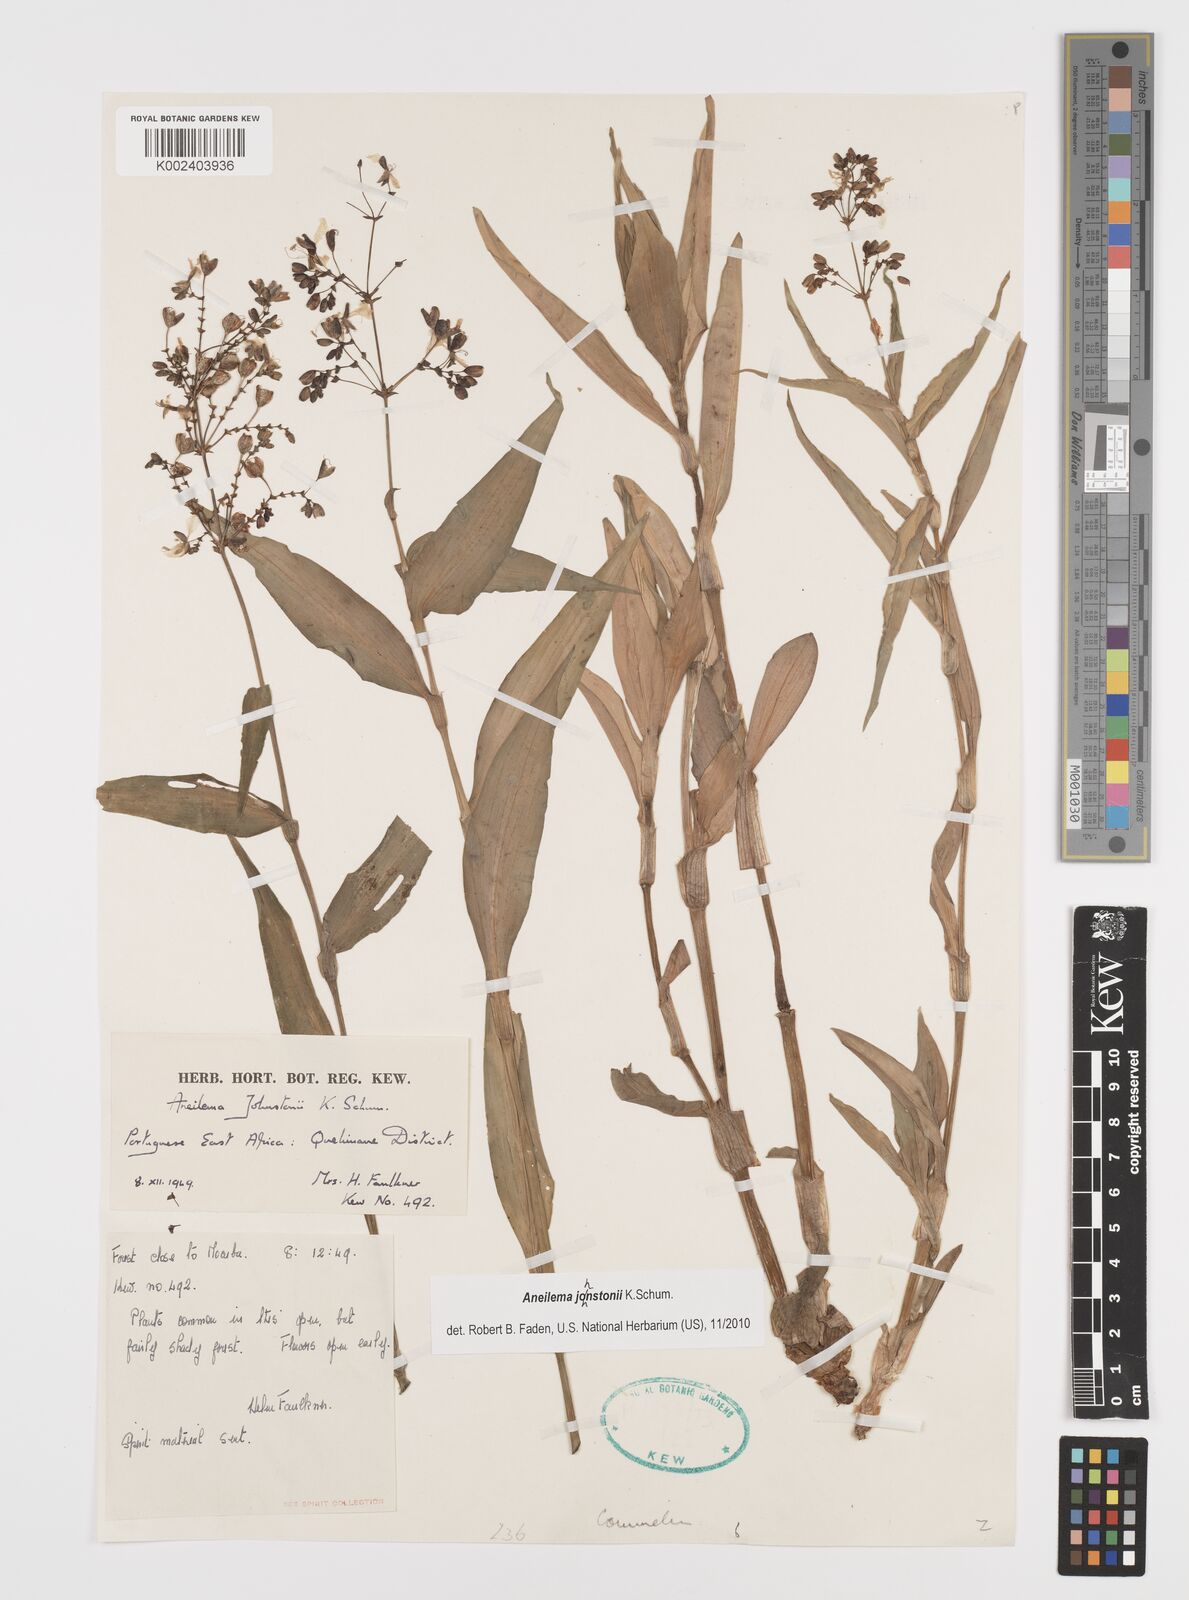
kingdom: Plantae
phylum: Tracheophyta
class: Liliopsida
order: Commelinales
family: Commelinaceae
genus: Aneilema
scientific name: Aneilema johnstonii
